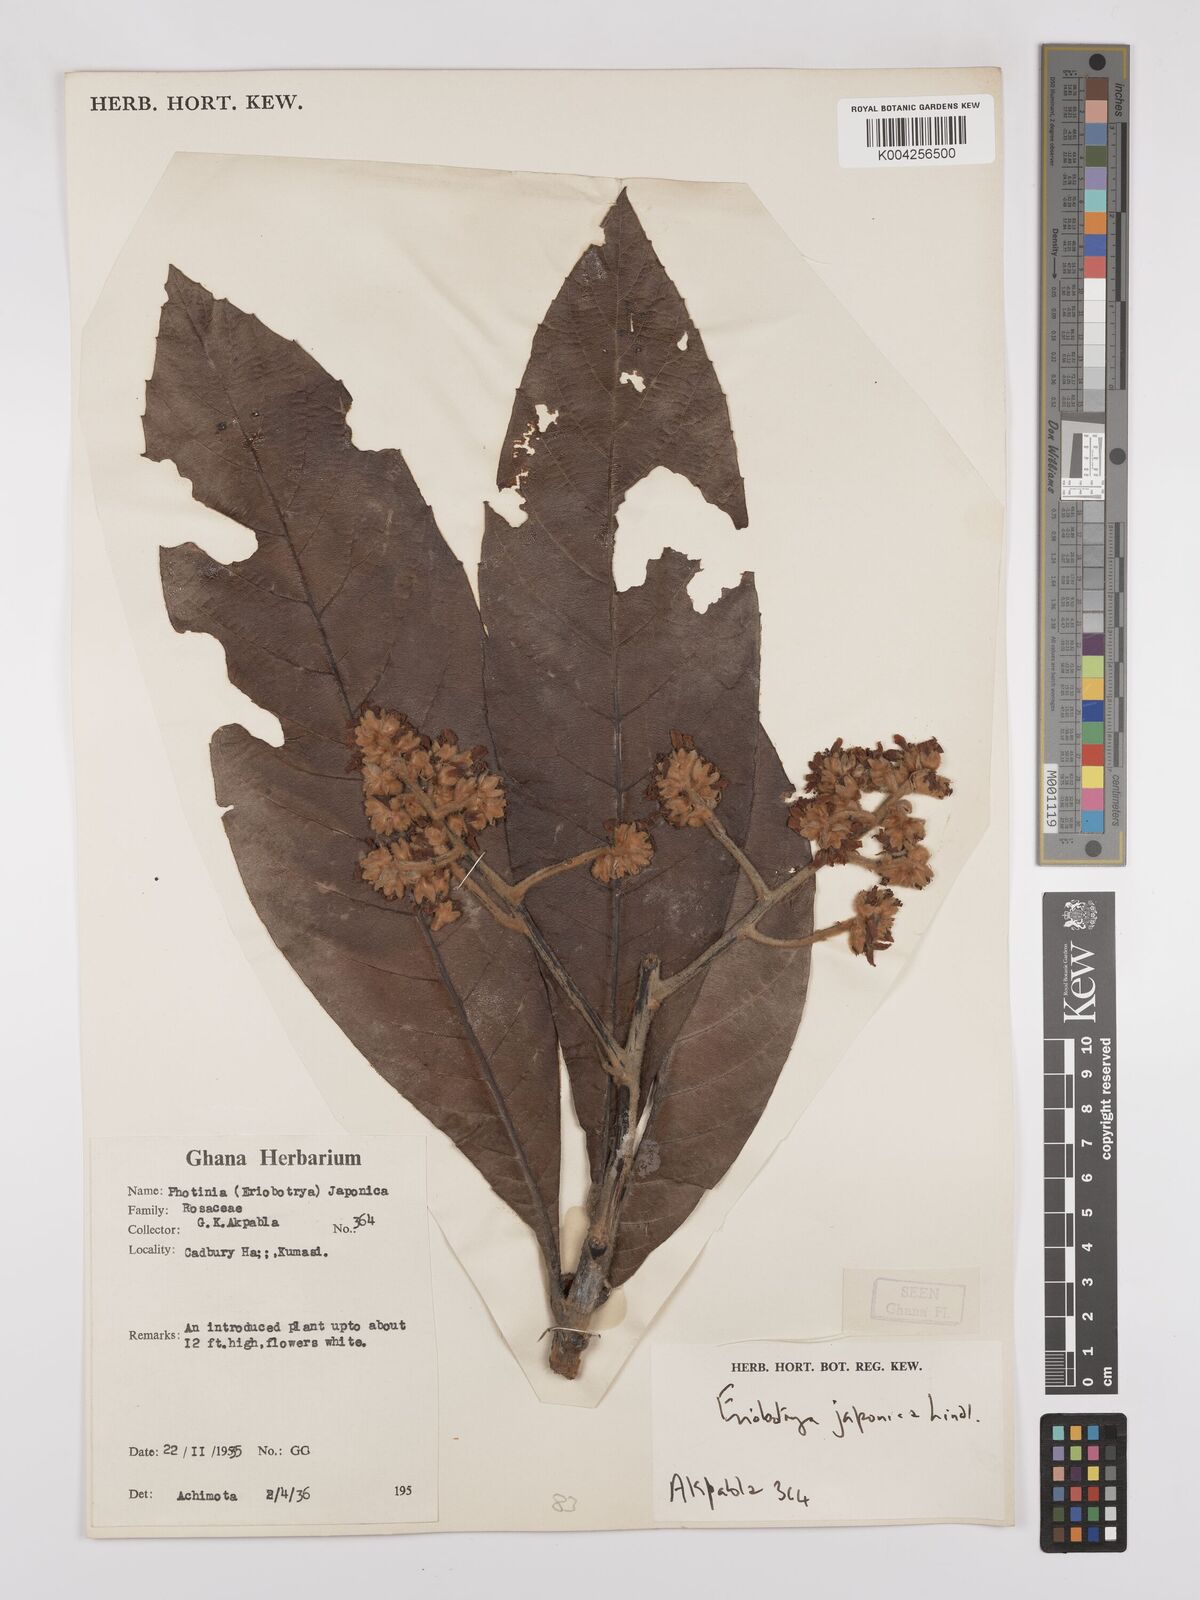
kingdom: Plantae
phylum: Tracheophyta
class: Magnoliopsida
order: Rosales
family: Rosaceae
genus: Rhaphiolepis
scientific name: Rhaphiolepis bibas
